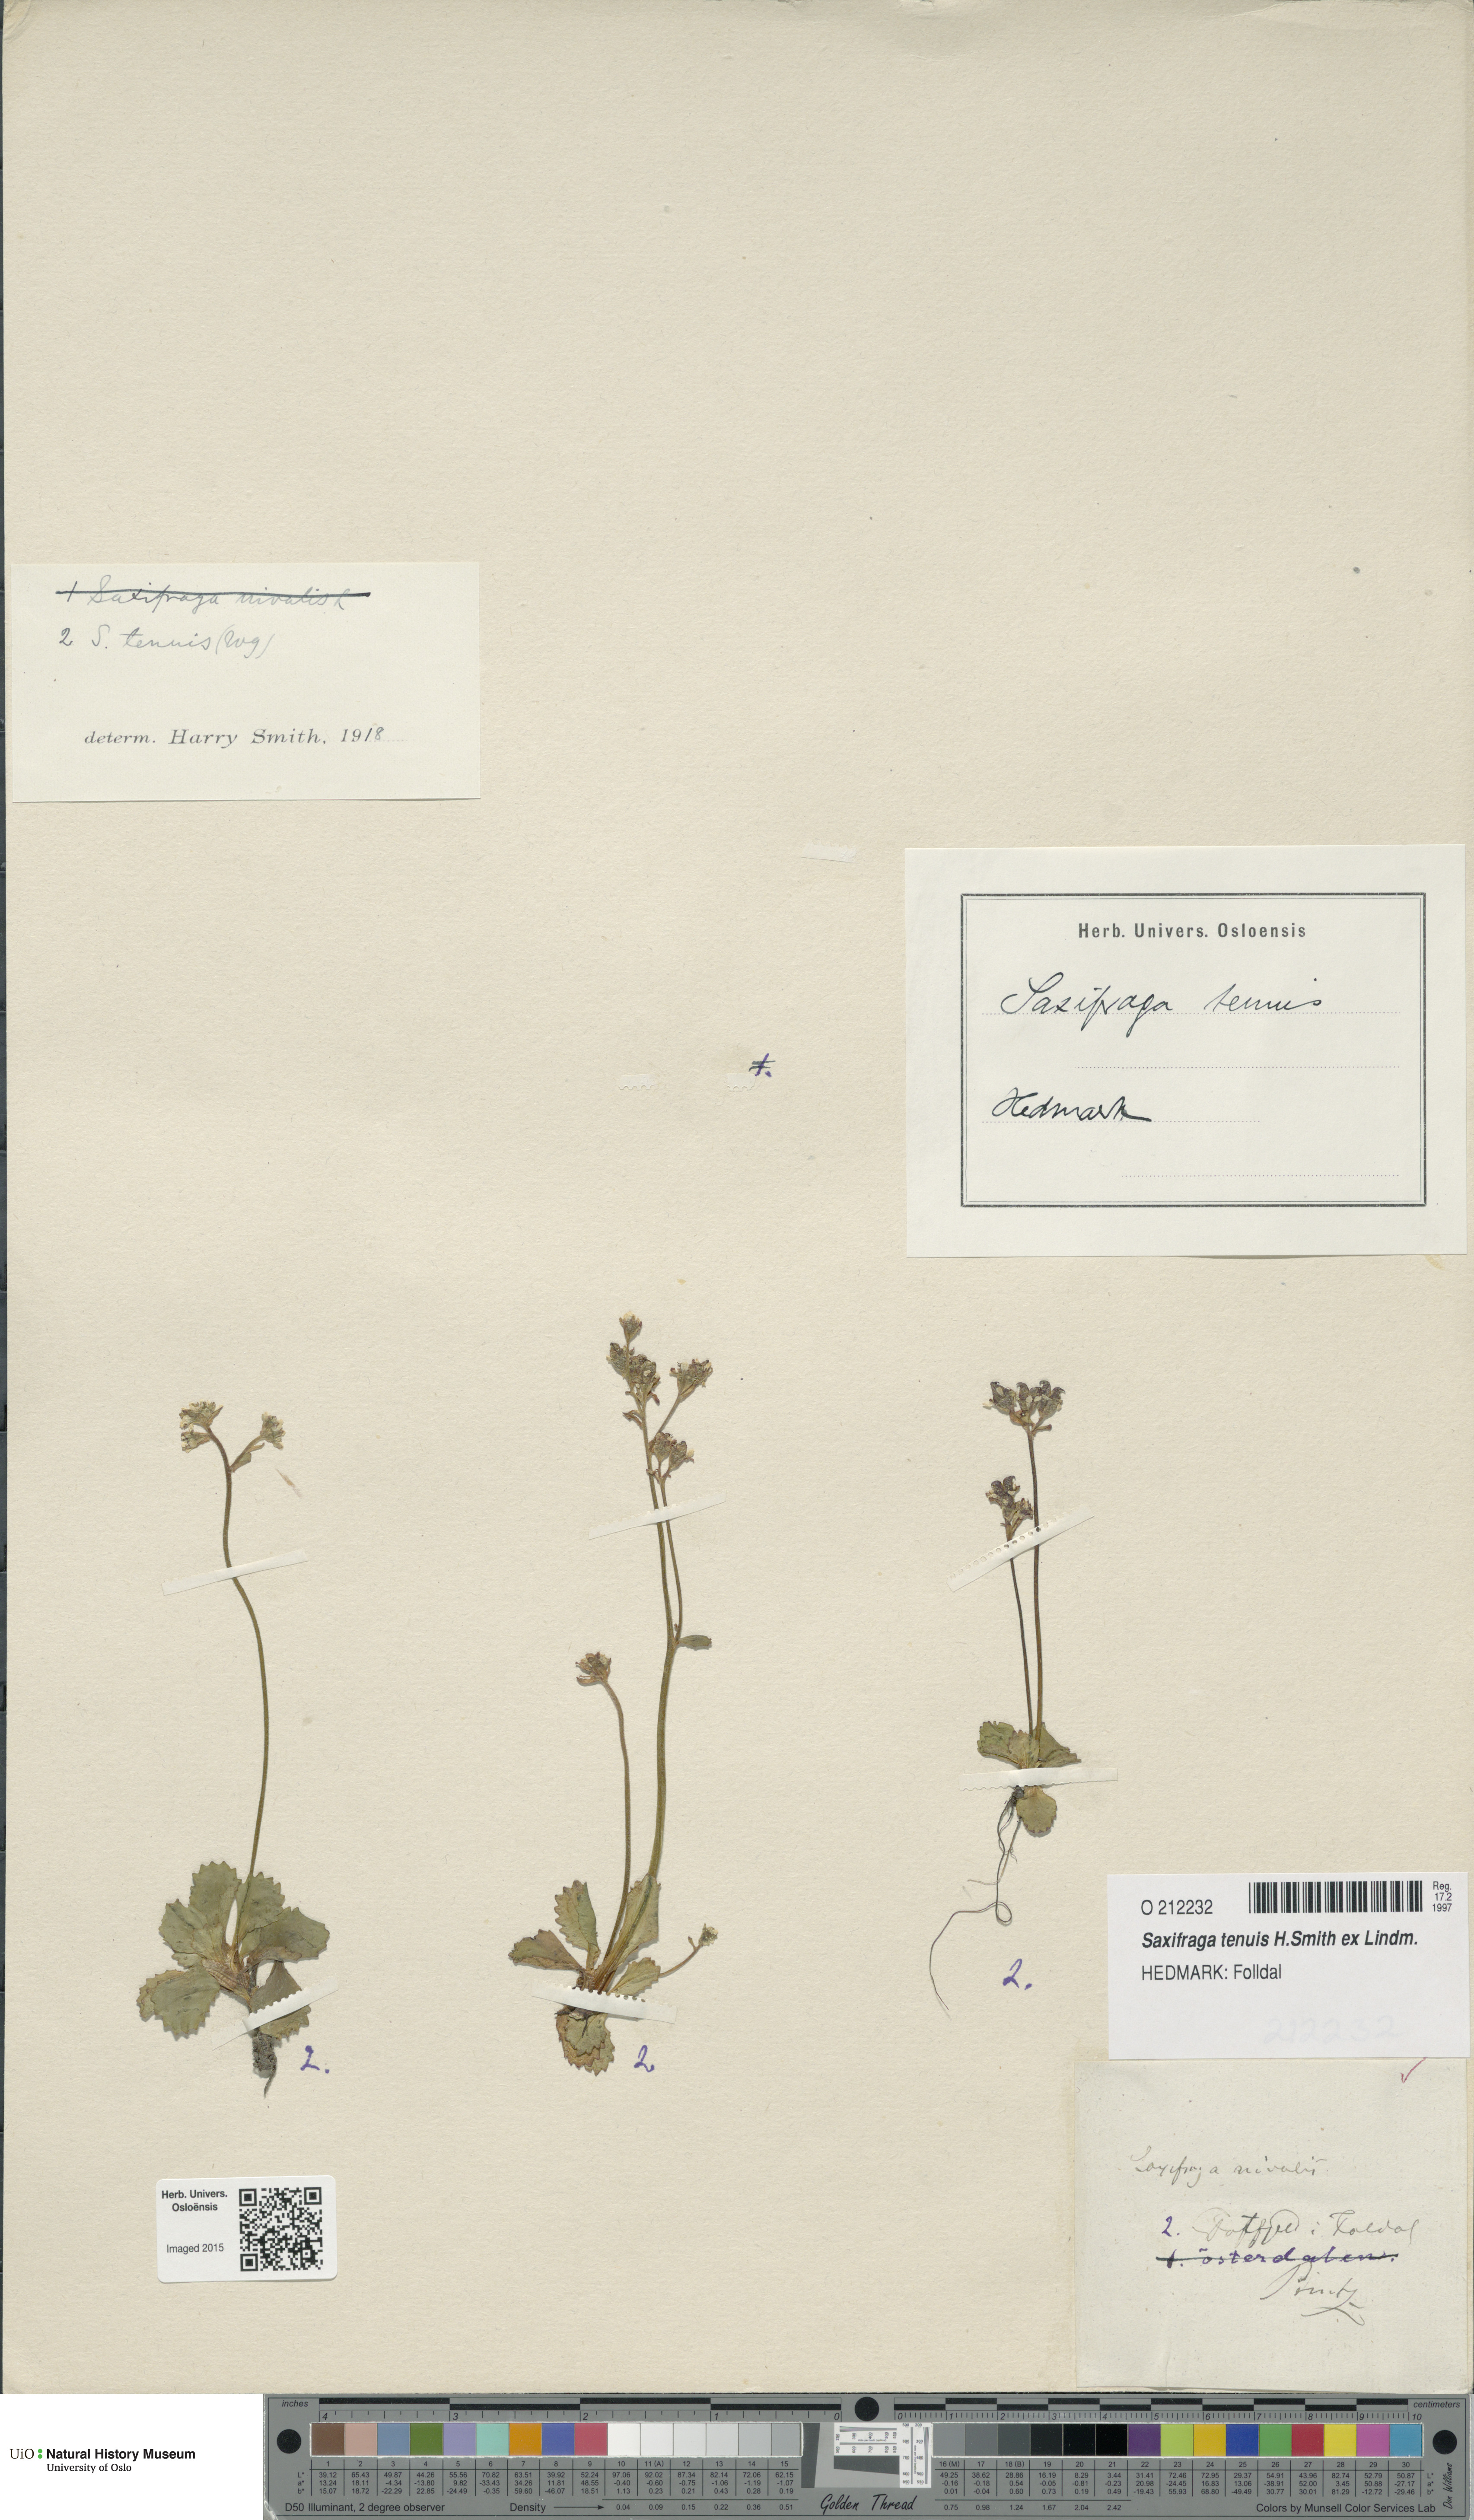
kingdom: Plantae
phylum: Tracheophyta
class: Magnoliopsida
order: Saxifragales
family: Saxifragaceae
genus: Micranthes
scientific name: Micranthes tenuis
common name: Ottertail pass saxifrage
